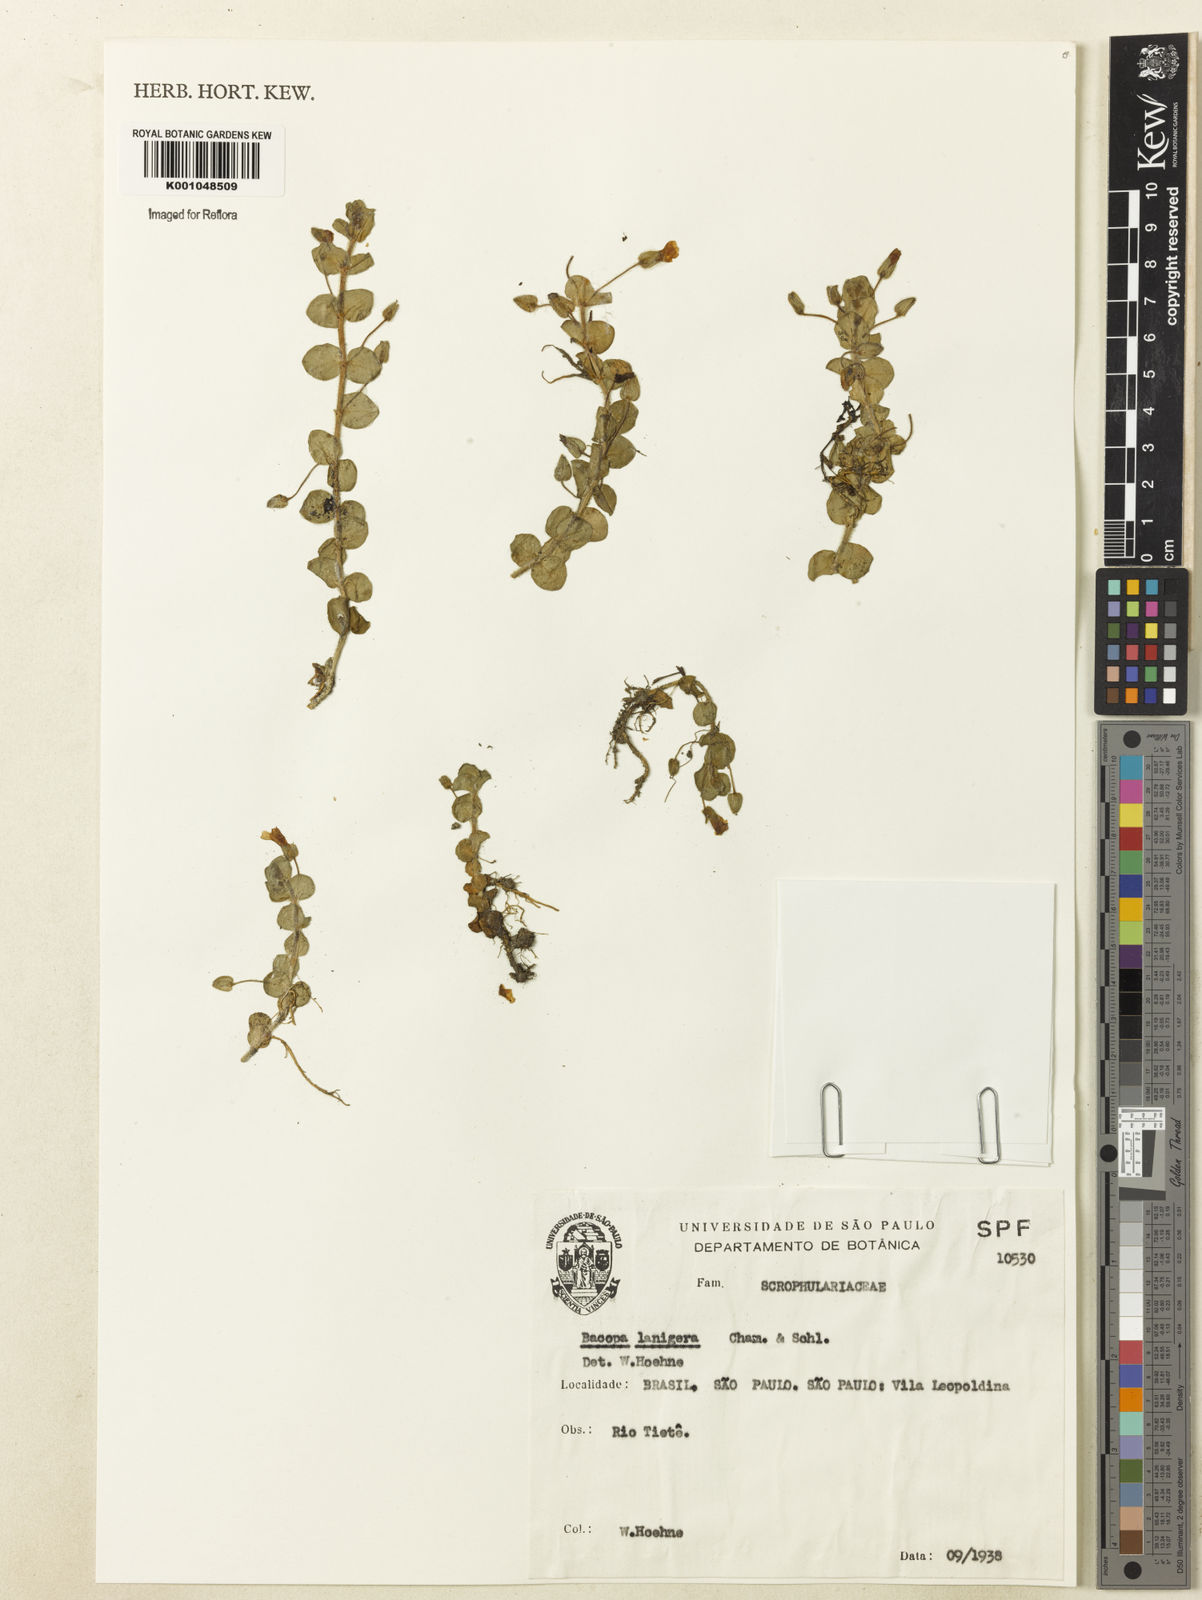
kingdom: Plantae
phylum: Tracheophyta
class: Magnoliopsida
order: Lamiales
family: Plantaginaceae
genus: Bacopa
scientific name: Bacopa lanigera
